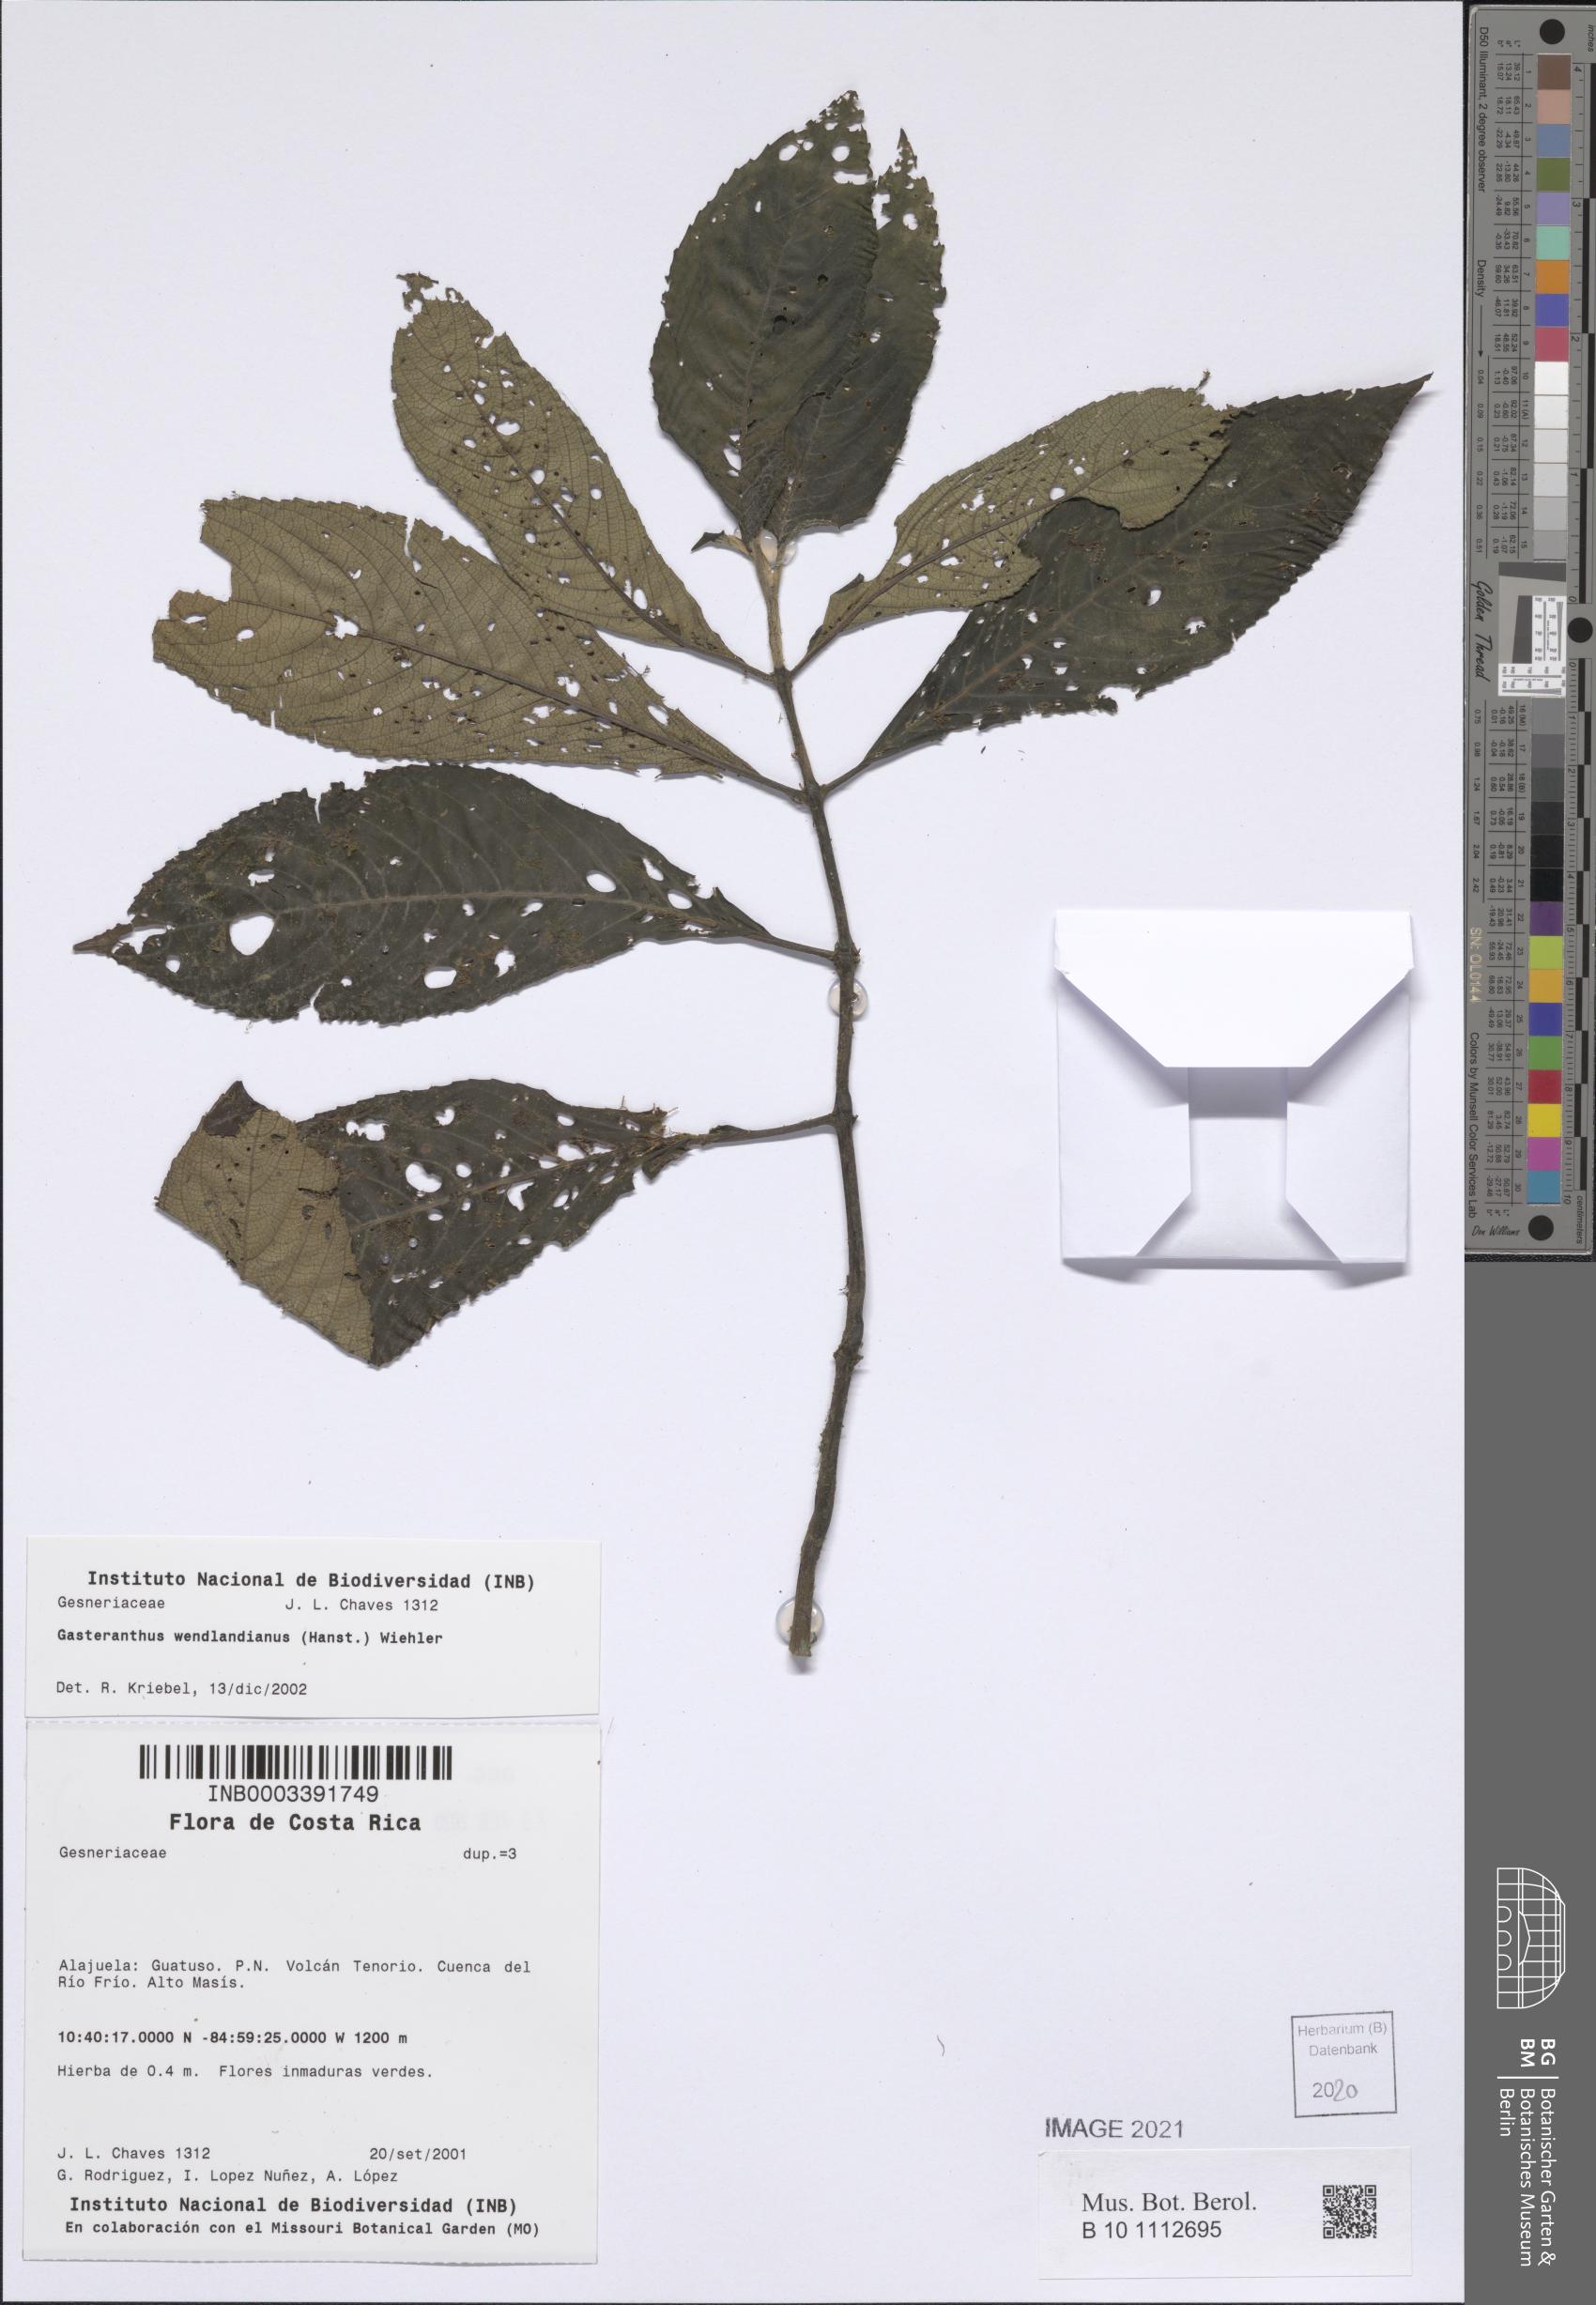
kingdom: Plantae
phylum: Tracheophyta
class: Magnoliopsida
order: Lamiales
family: Gesneriaceae
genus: Gasteranthus
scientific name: Gasteranthus wendlandianus
